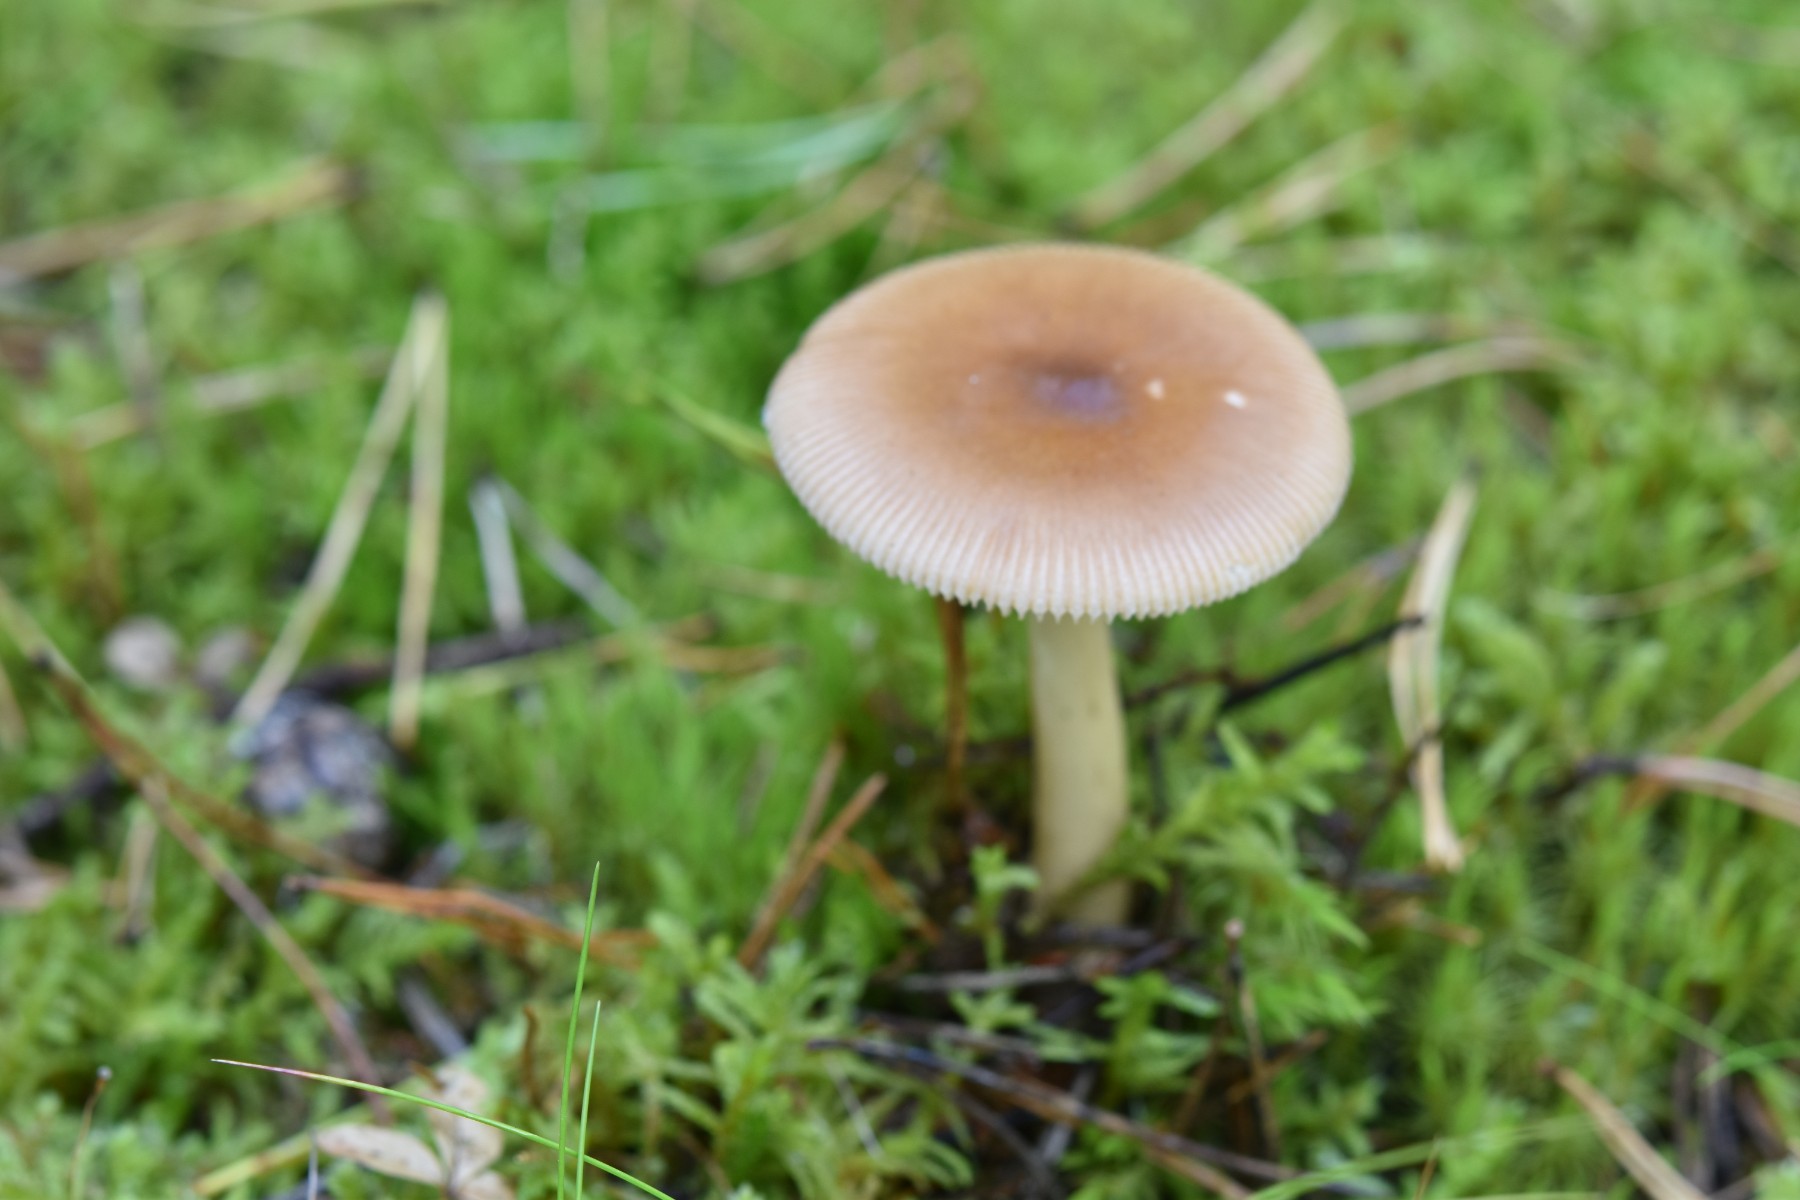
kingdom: Fungi
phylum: Basidiomycota
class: Agaricomycetes
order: Agaricales
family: Amanitaceae
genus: Amanita
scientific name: Amanita fulva
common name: brun kam-fluesvamp
